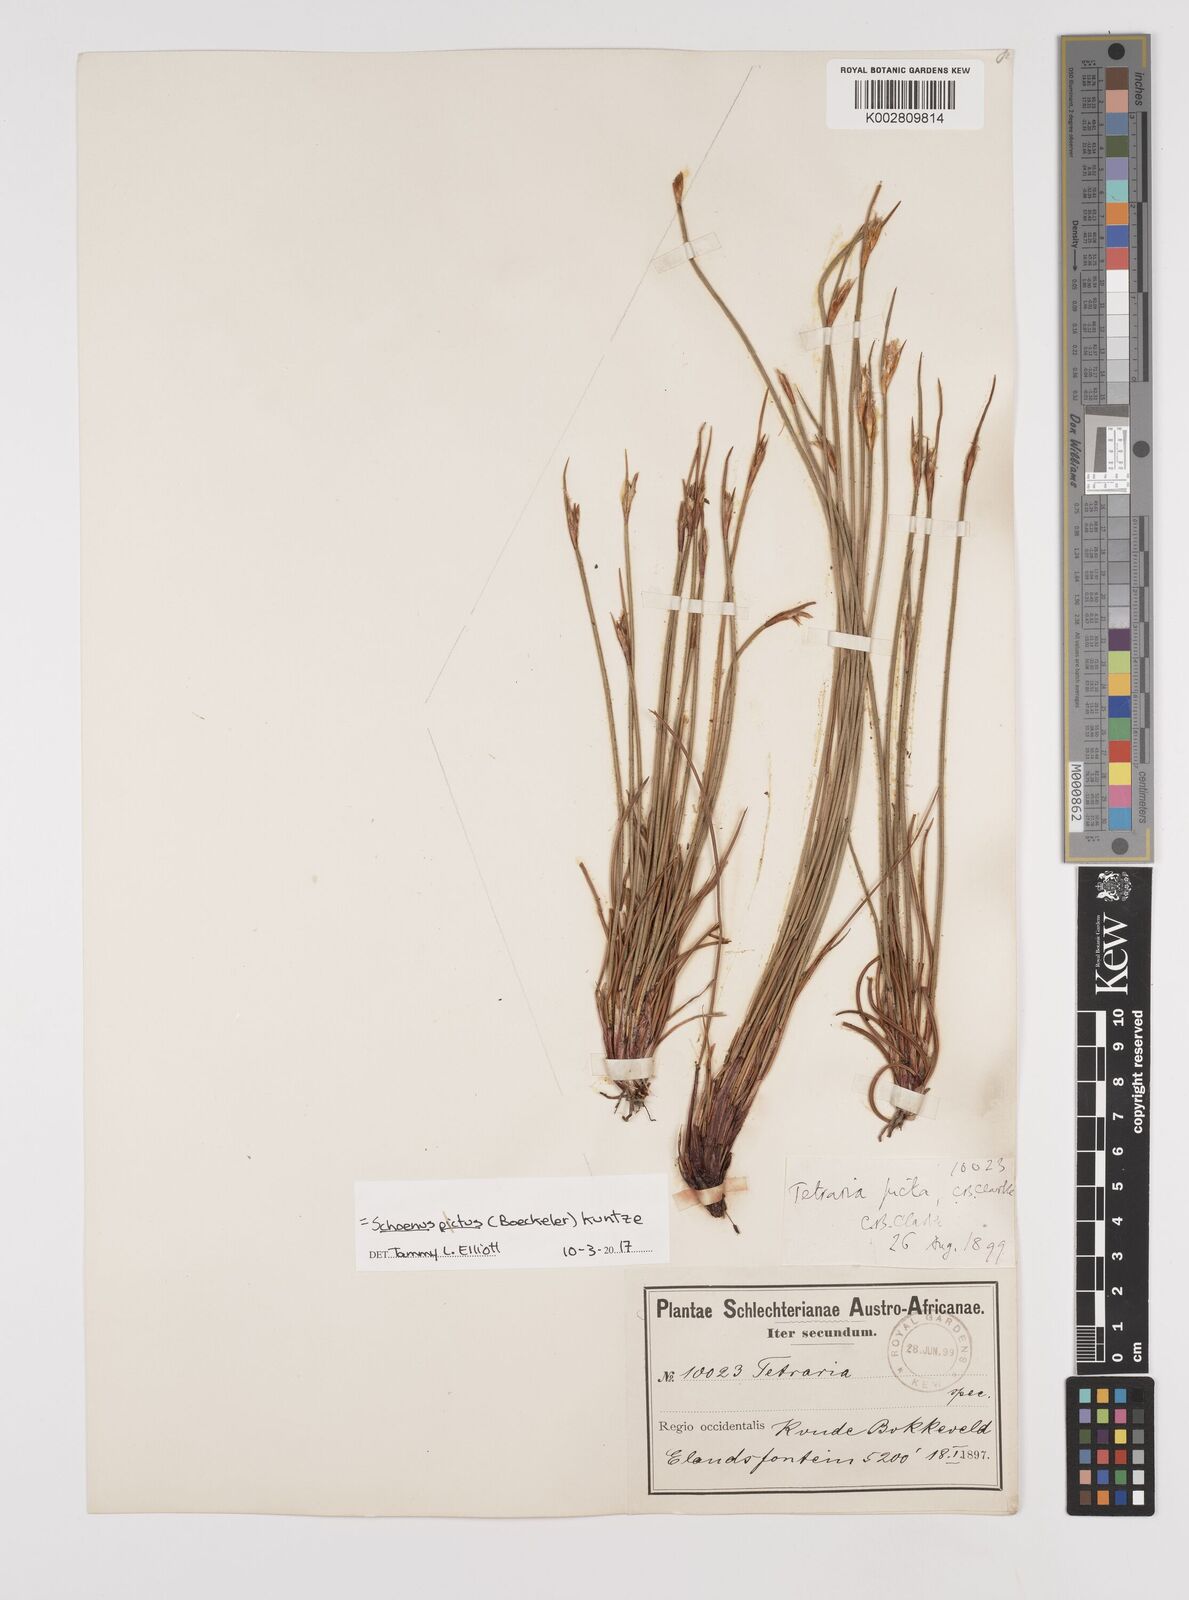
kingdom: Plantae
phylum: Tracheophyta
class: Liliopsida
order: Poales
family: Cyperaceae
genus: Schoenus
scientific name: Schoenus pictus
